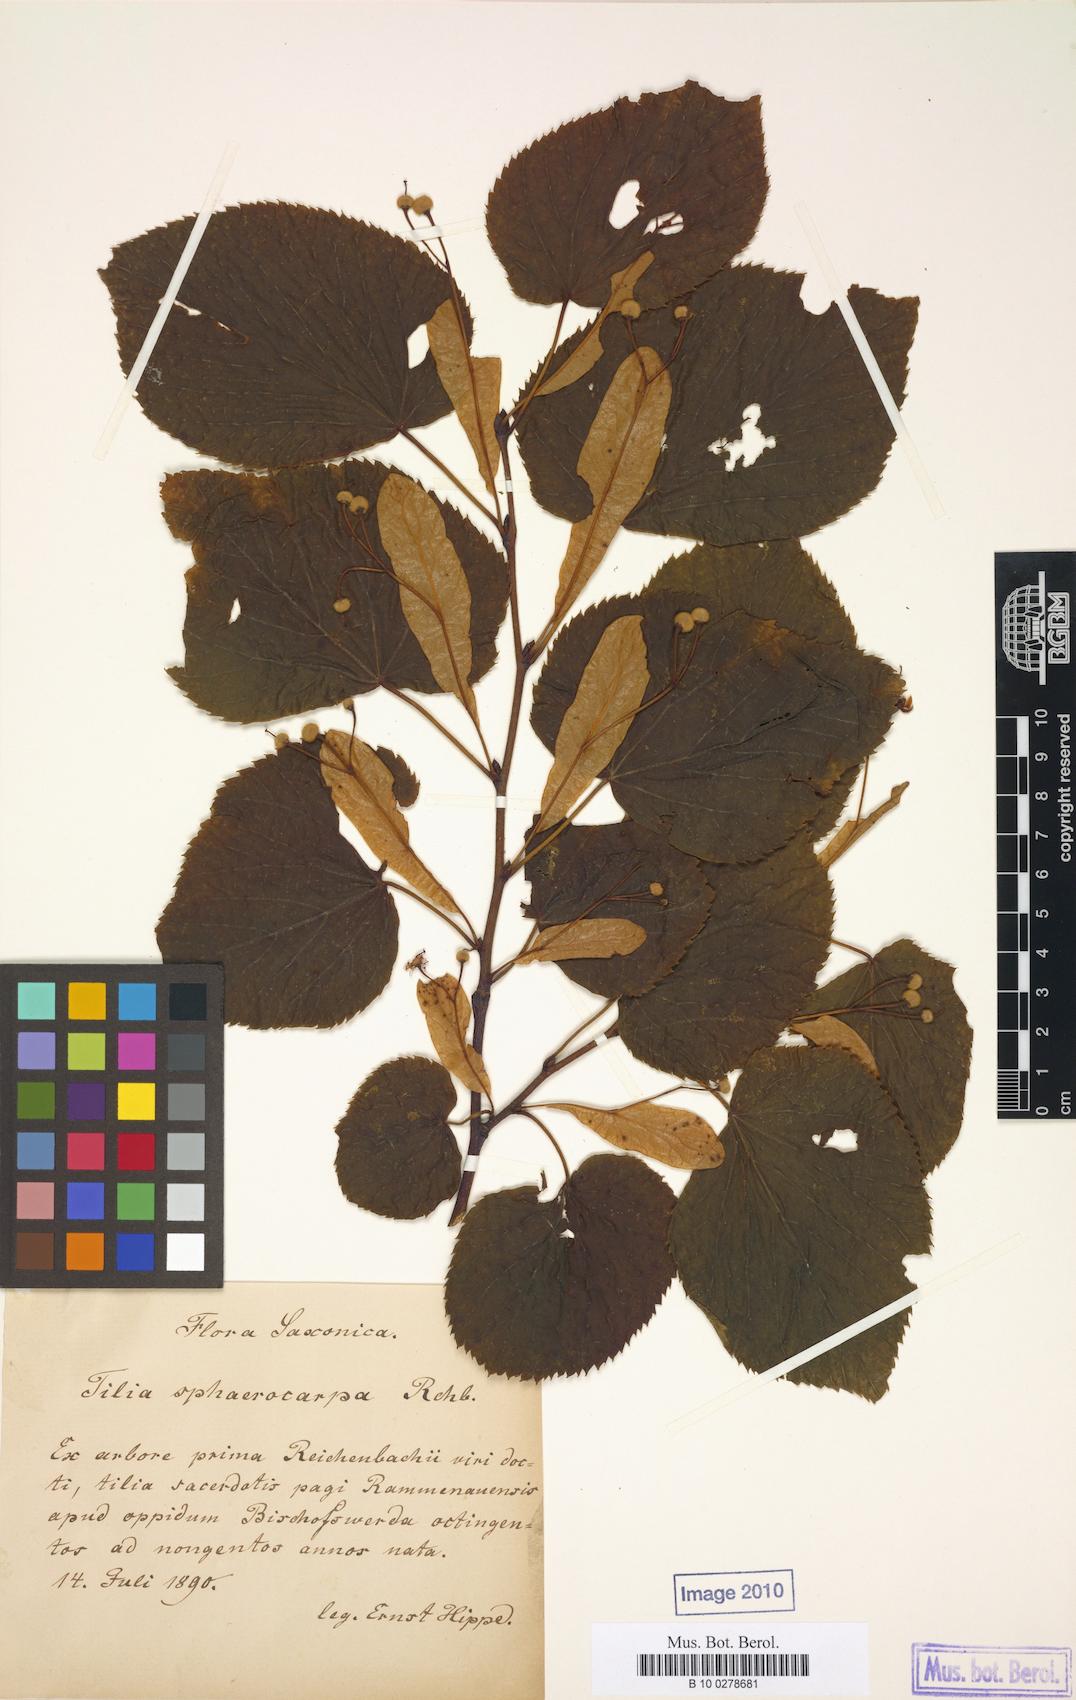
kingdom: Plantae
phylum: Tracheophyta
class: Magnoliopsida
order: Malvales
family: Malvaceae
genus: Tilia
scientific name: Tilia platyphyllos
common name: Large-leaved lime
